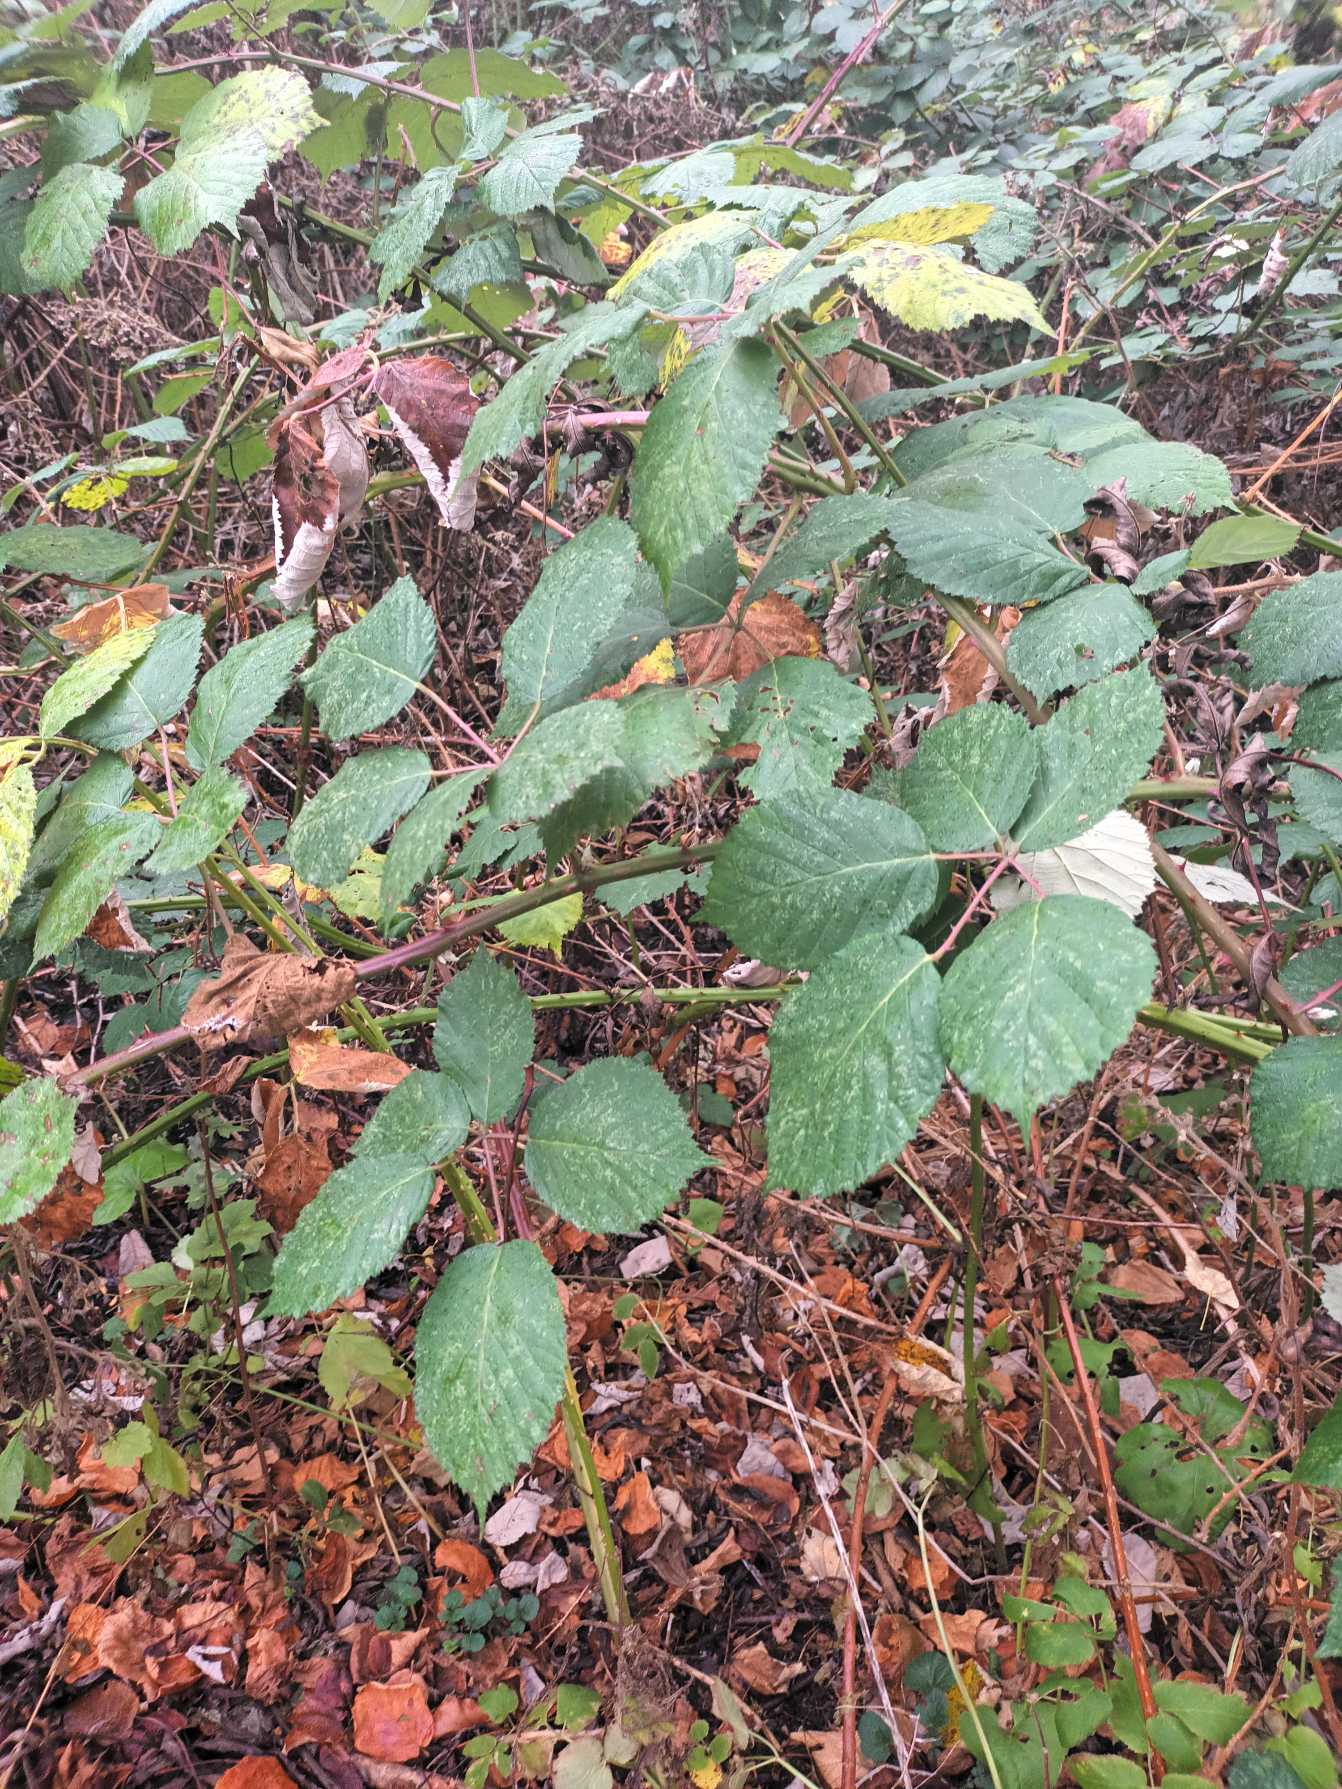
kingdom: Plantae
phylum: Tracheophyta
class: Magnoliopsida
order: Rosales
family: Rosaceae
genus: Rubus
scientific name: Rubus armeniacus
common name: Armensk brombær
